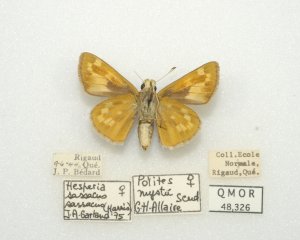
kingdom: Animalia
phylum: Arthropoda
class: Insecta
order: Lepidoptera
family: Hesperiidae
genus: Hesperia
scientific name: Hesperia sassacus
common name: Sassacus Skipper
